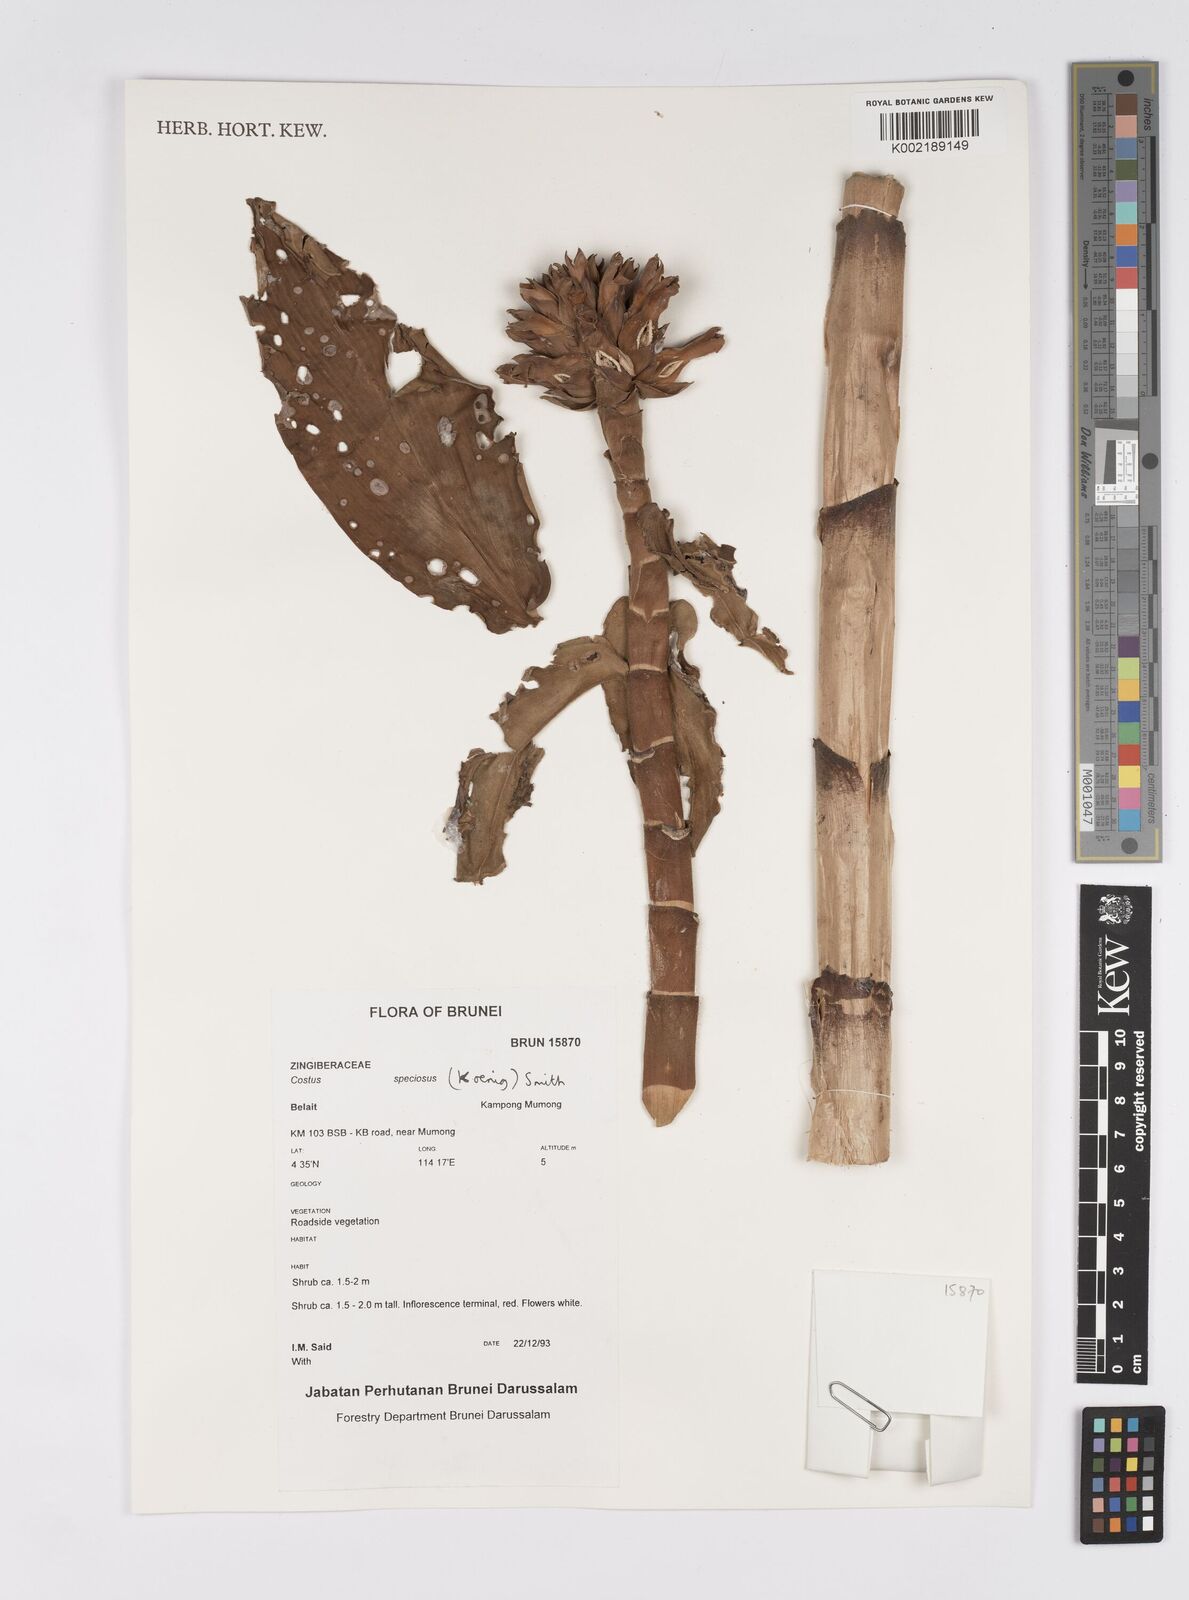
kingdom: Plantae
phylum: Tracheophyta
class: Liliopsida
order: Zingiberales
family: Costaceae
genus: Hellenia
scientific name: Hellenia speciosa
